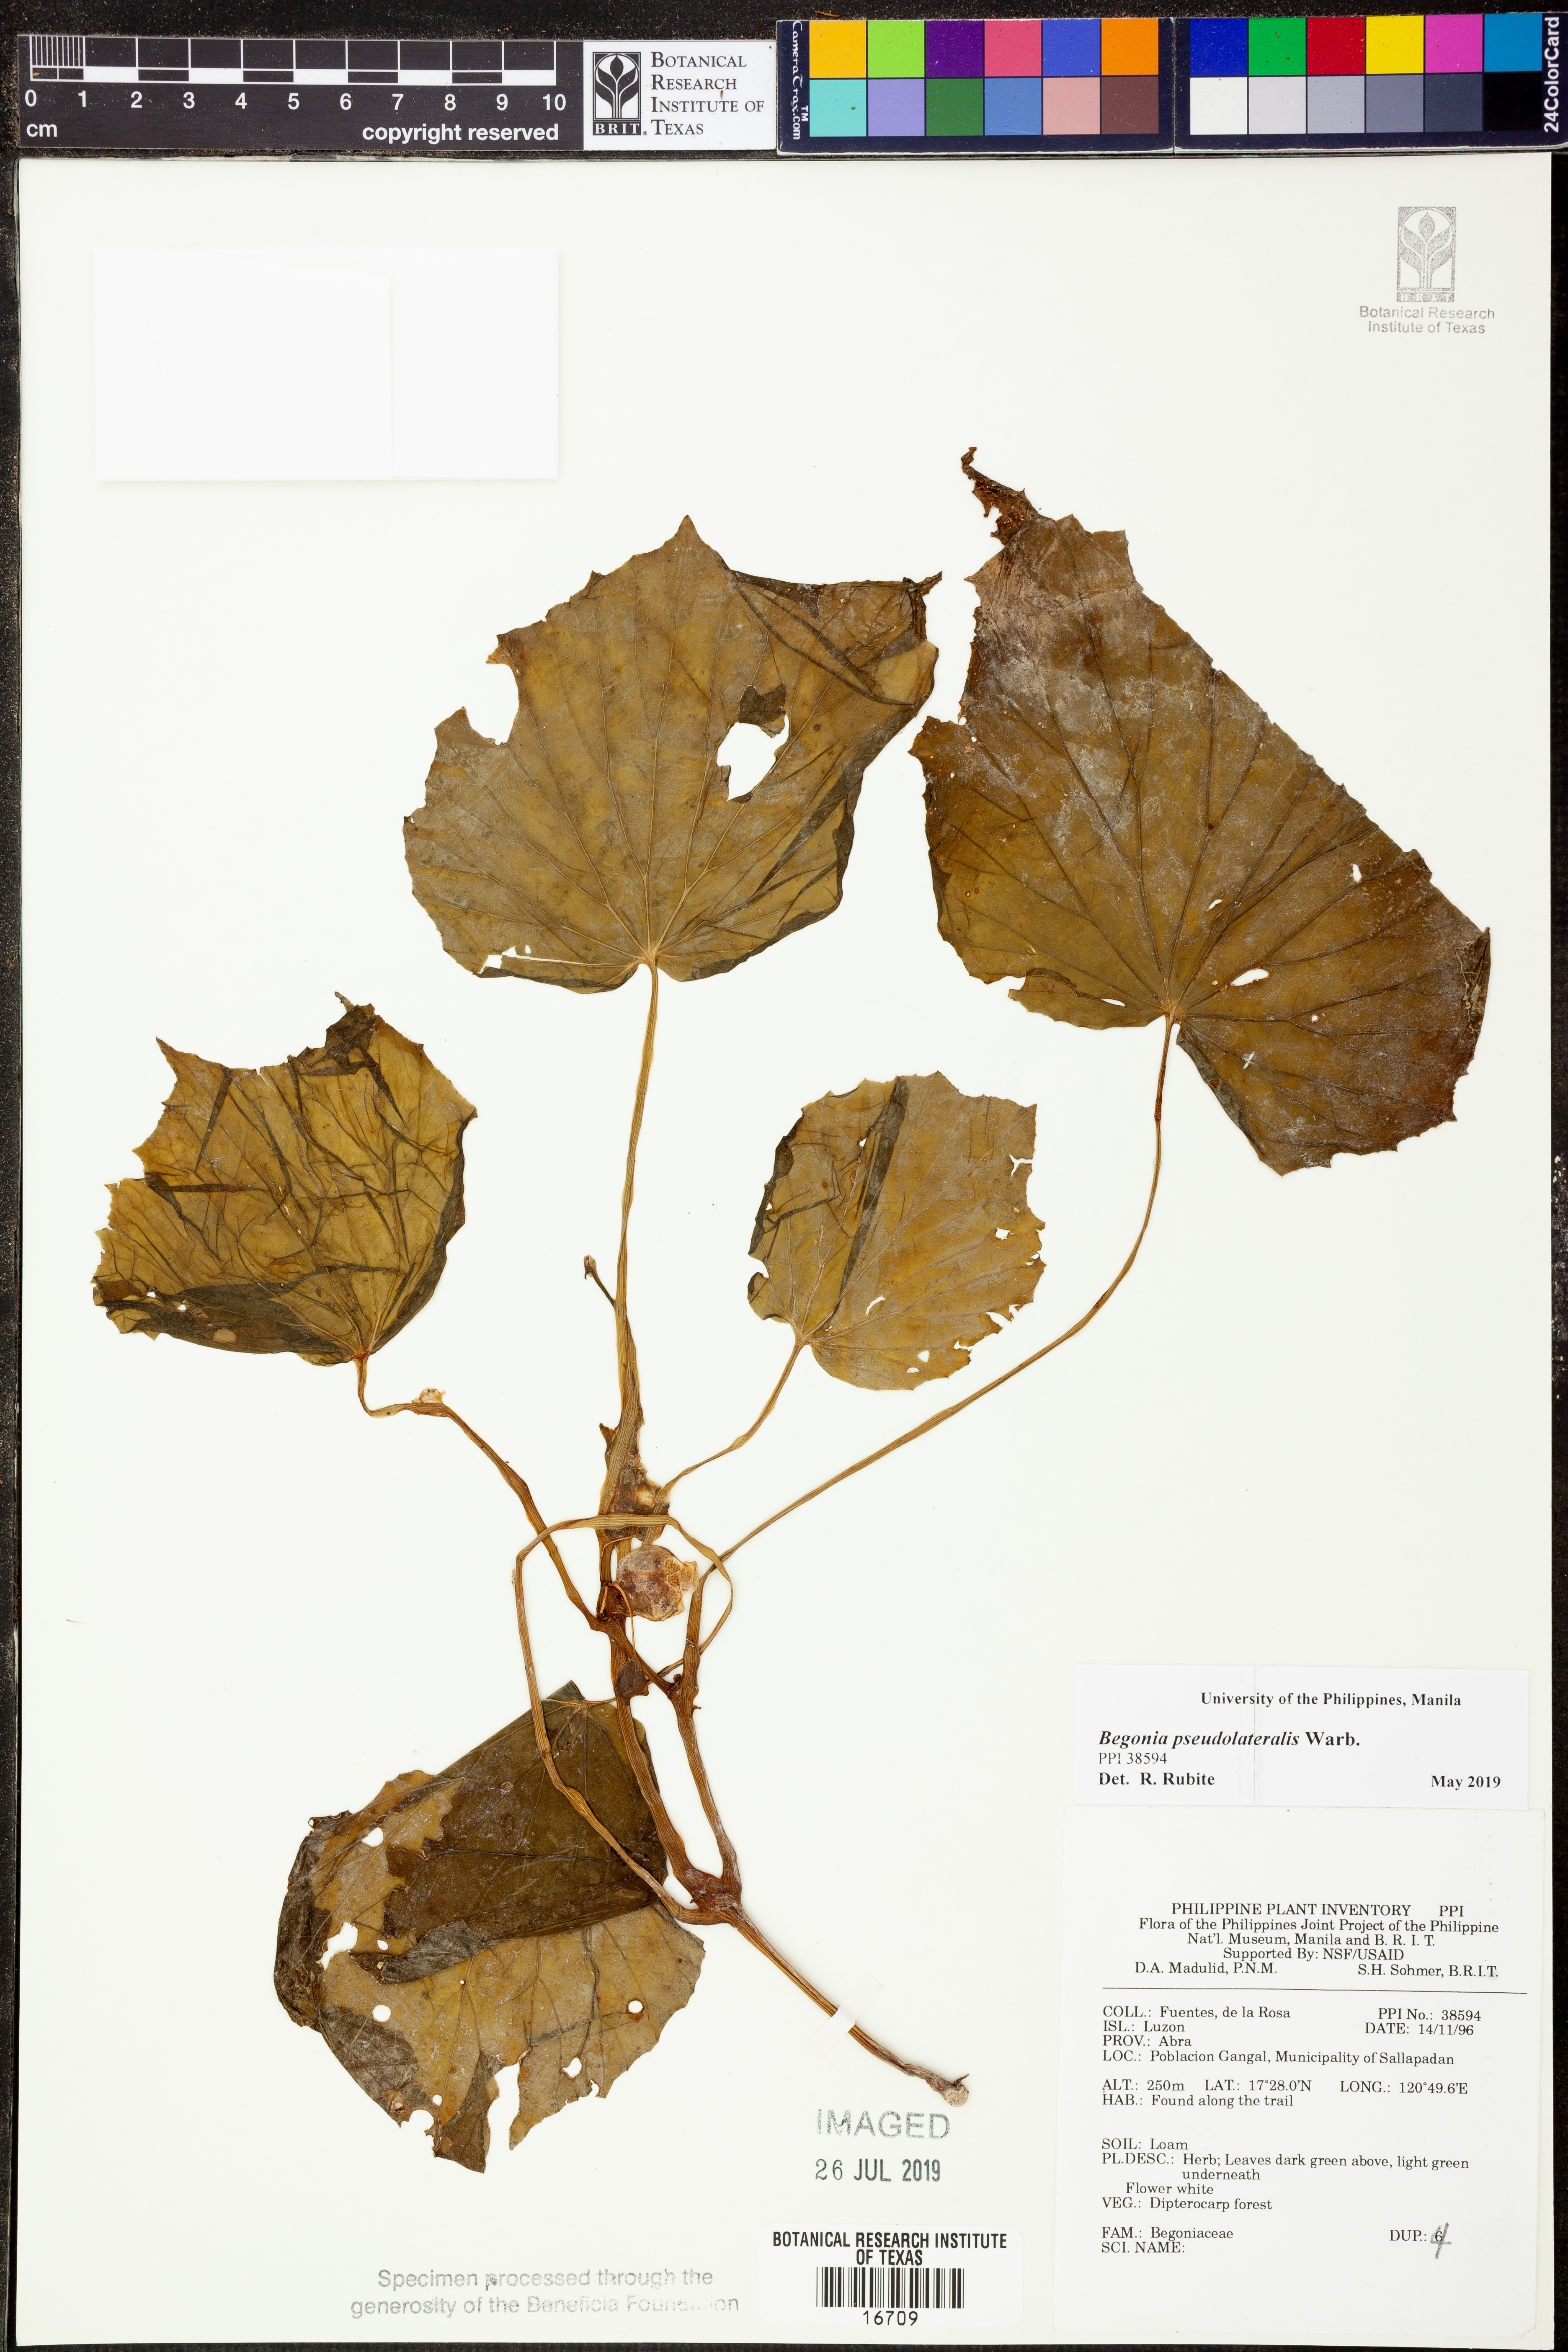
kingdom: Plantae
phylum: Tracheophyta
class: Magnoliopsida
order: Cucurbitales
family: Begoniaceae
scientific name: Begoniaceae
